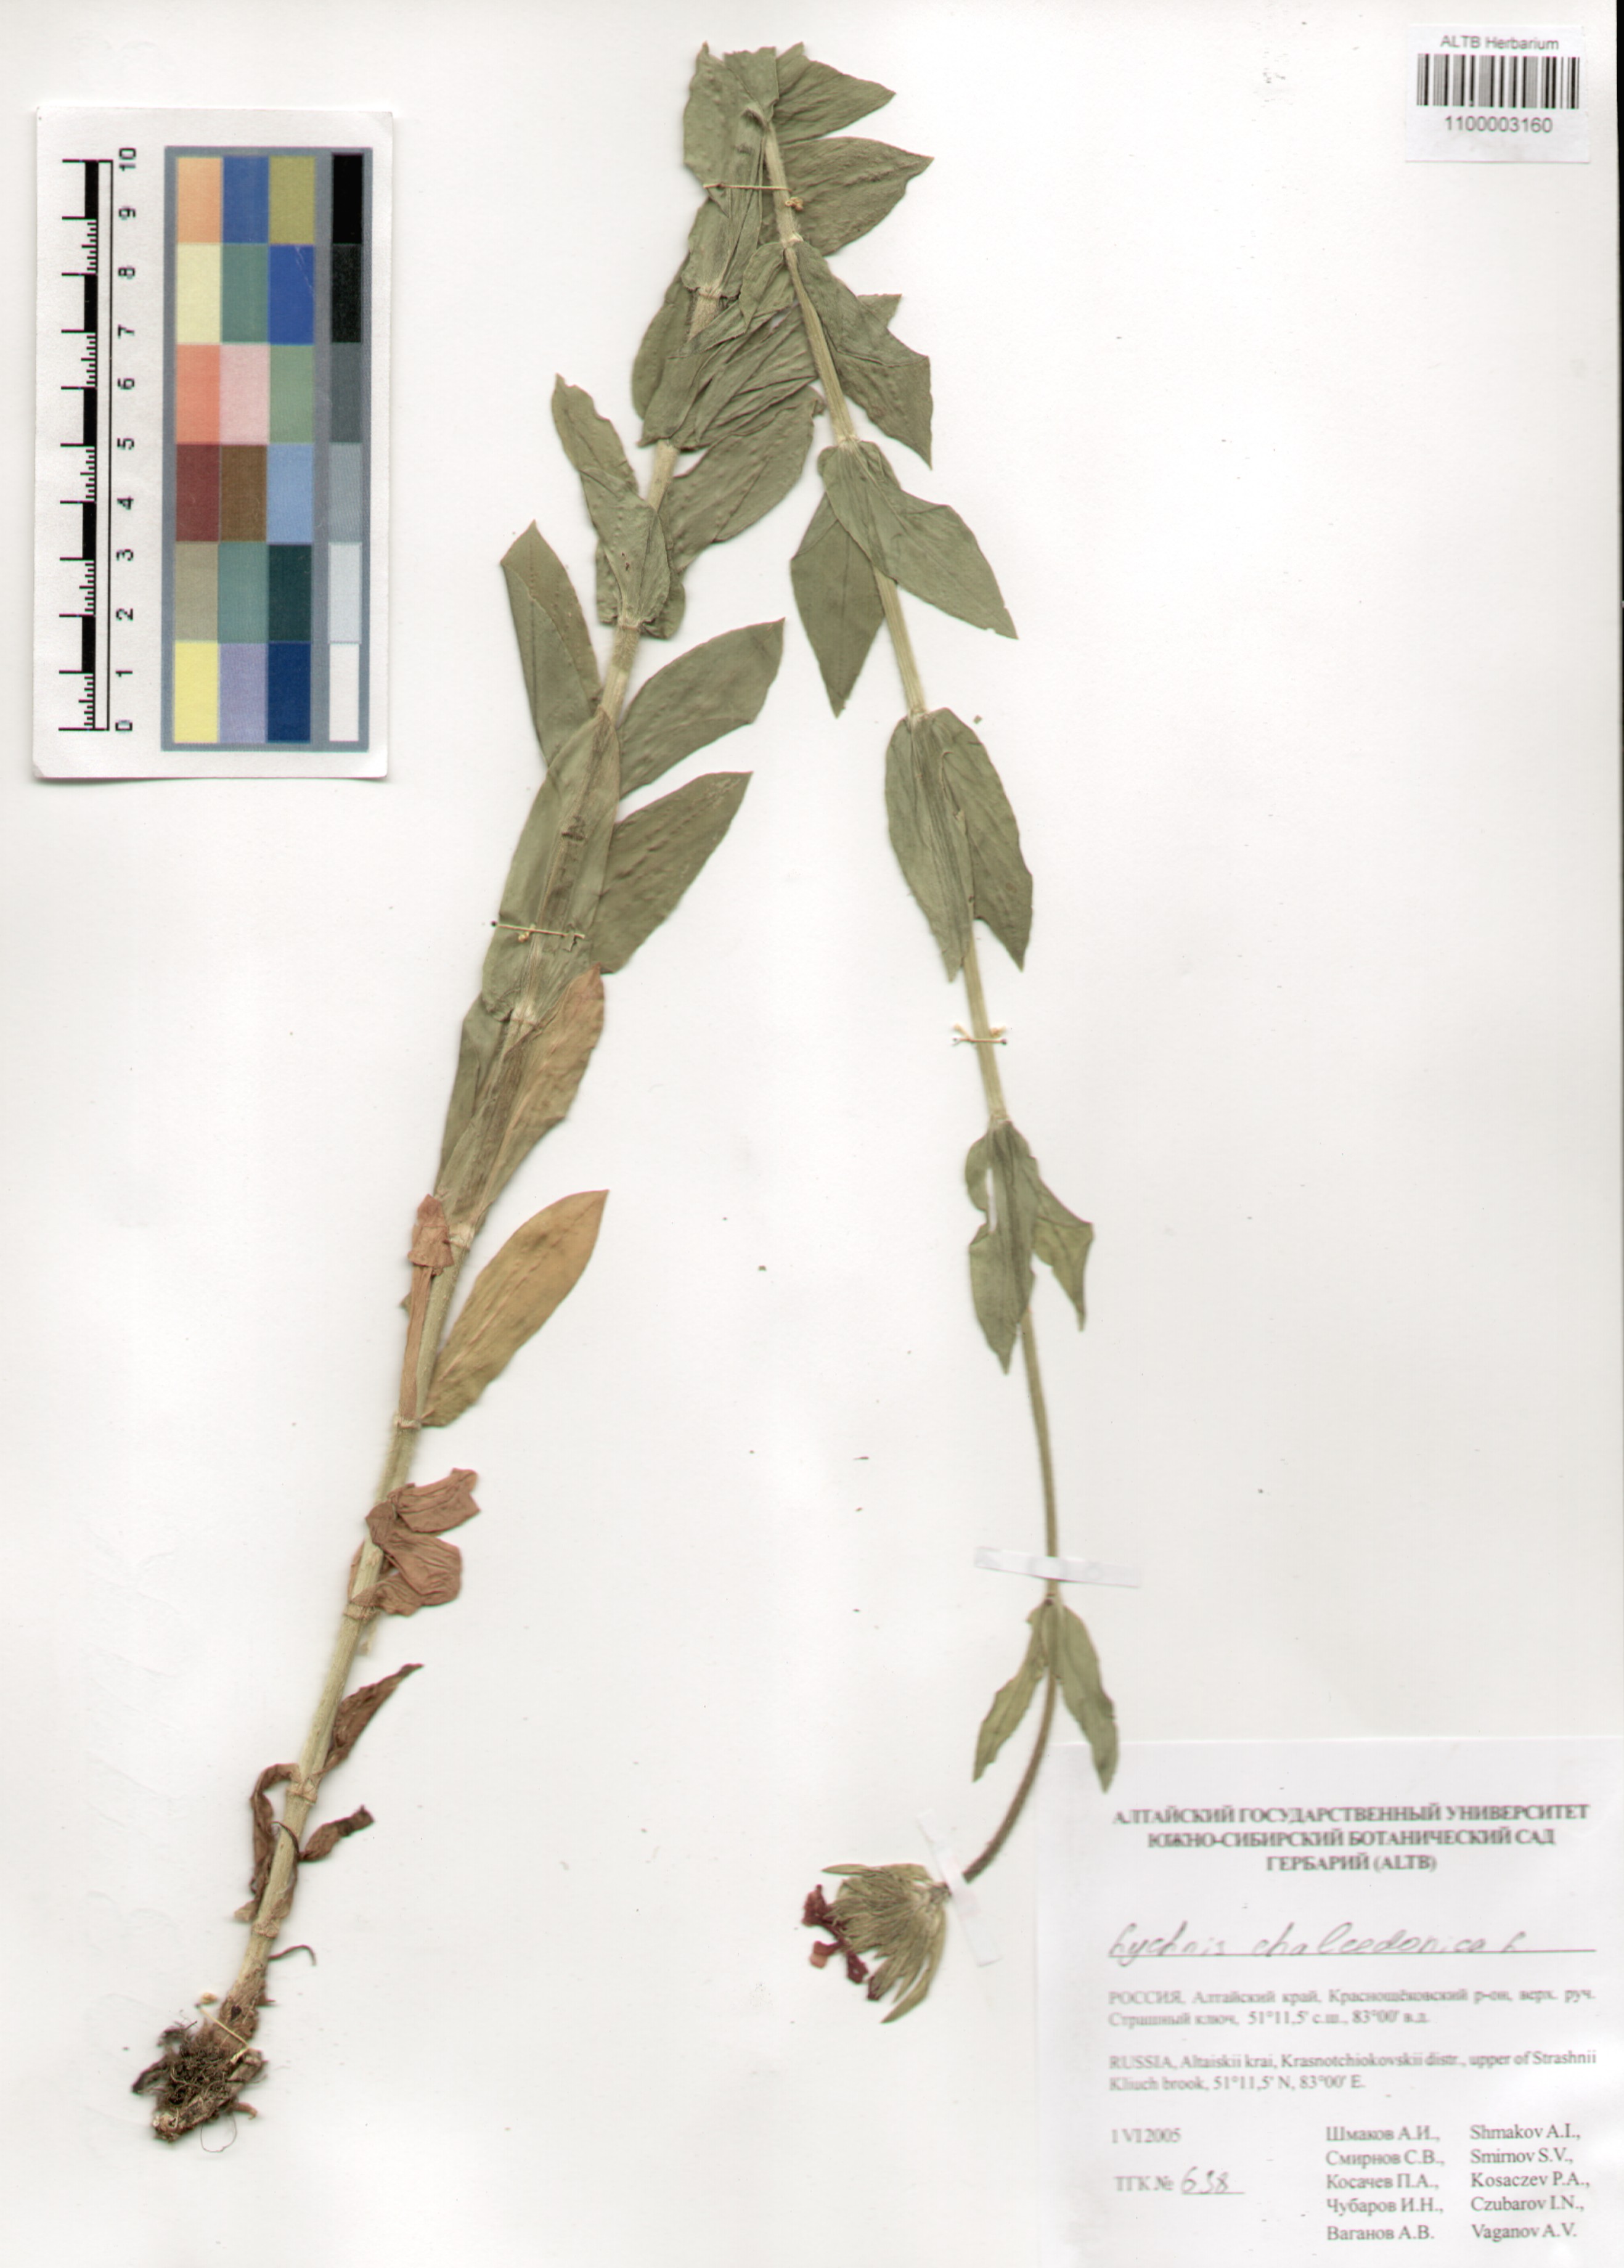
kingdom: Plantae
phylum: Tracheophyta
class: Magnoliopsida
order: Caryophyllales
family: Caryophyllaceae
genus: Silene
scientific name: Silene chalcedonica
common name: Maltese-cross
